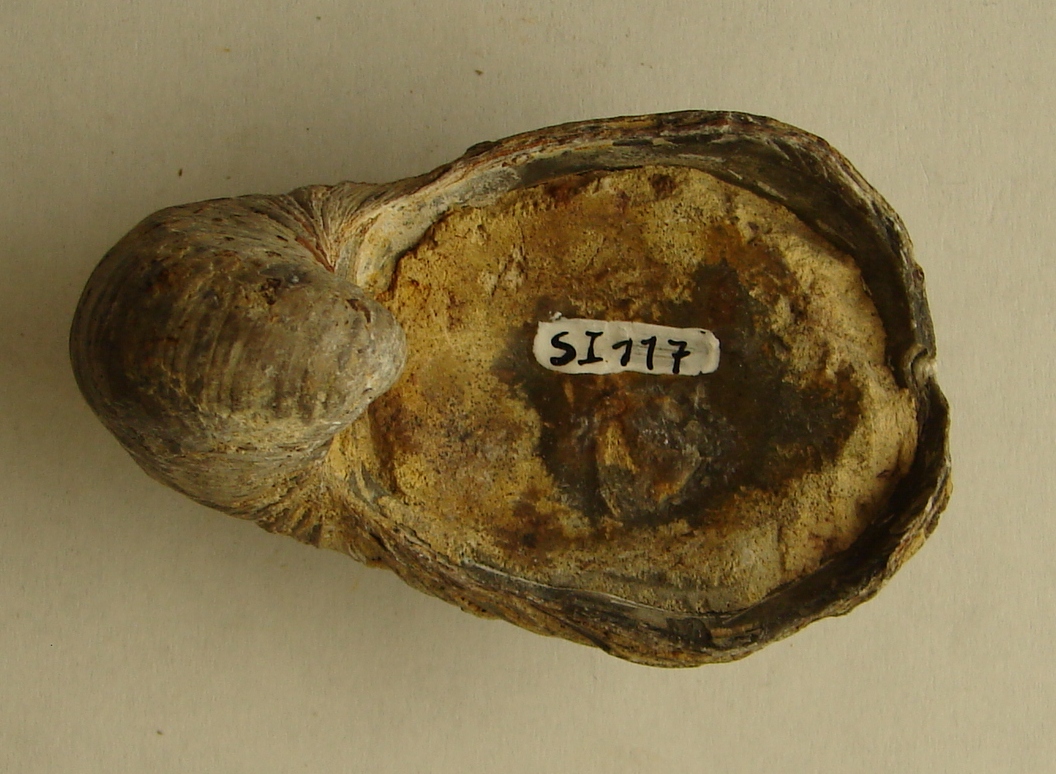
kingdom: Animalia
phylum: Mollusca
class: Bivalvia
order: Ostreida
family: Gryphaeidae
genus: Gryphaea
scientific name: Gryphaea arcuata
